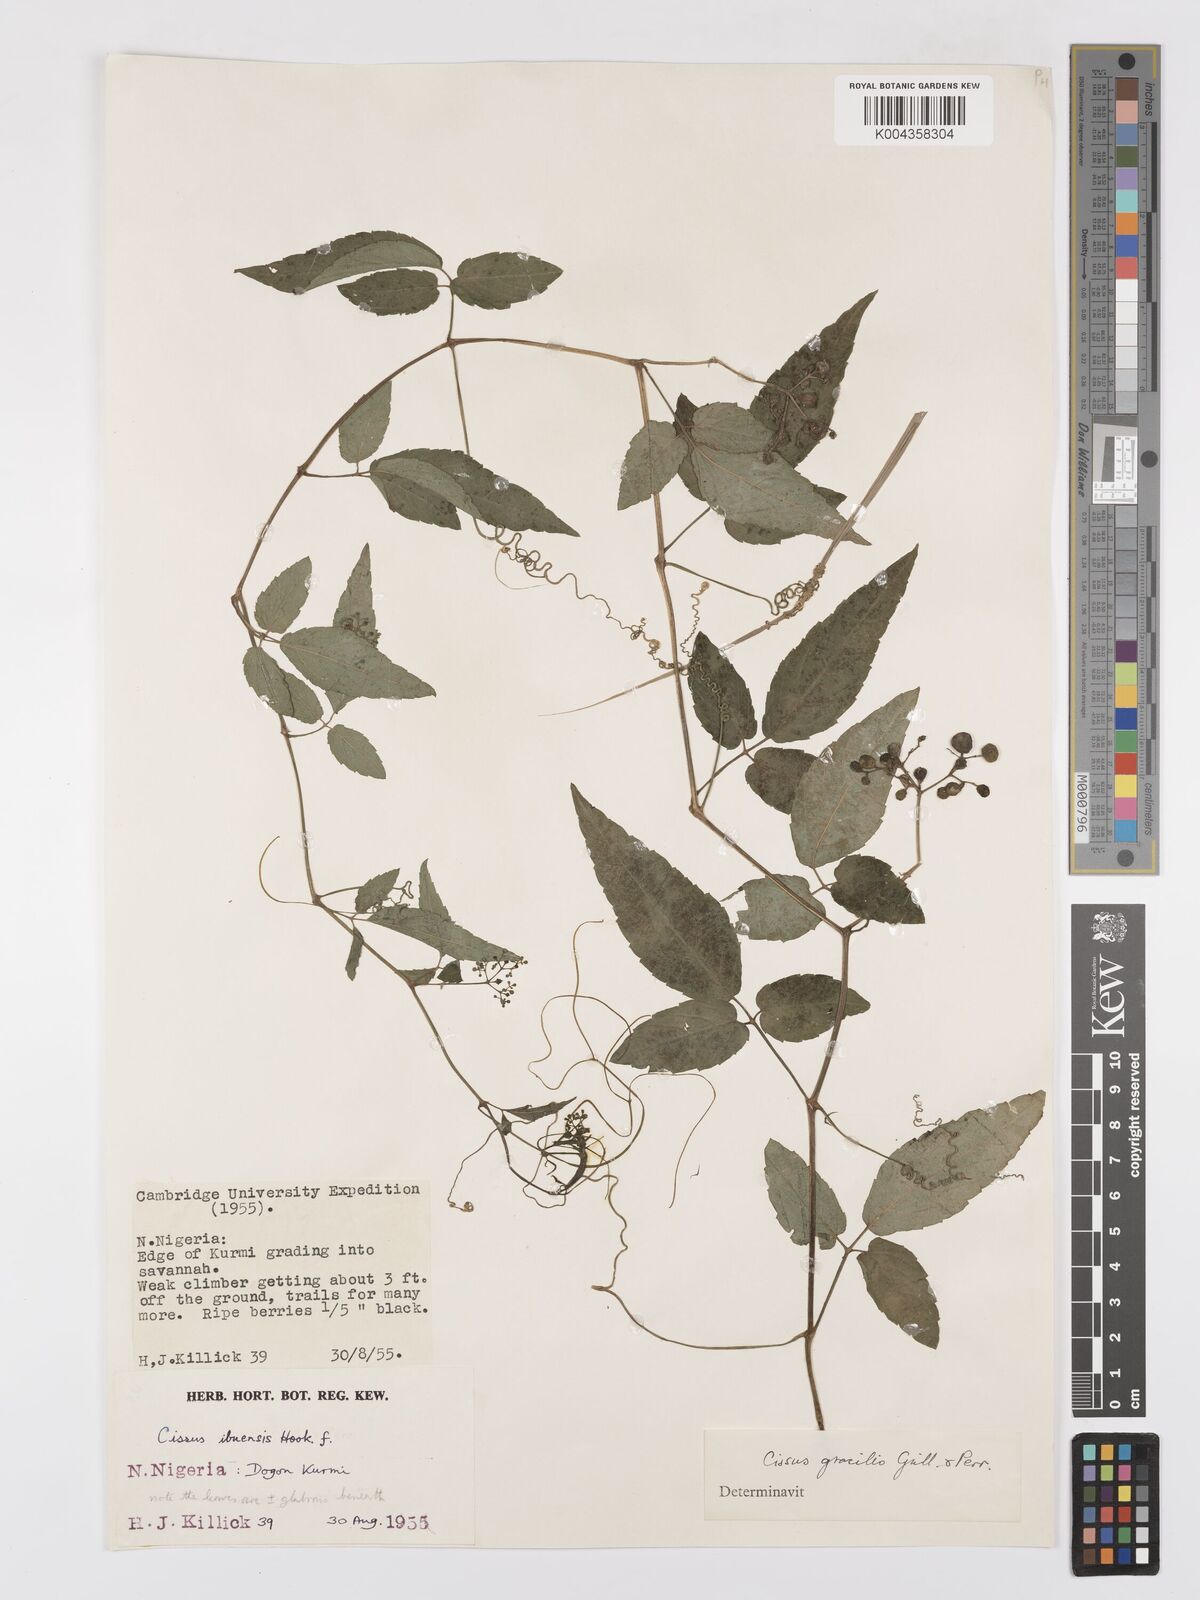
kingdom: Plantae
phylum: Tracheophyta
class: Magnoliopsida
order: Vitales
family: Vitaceae
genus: Afrocayratia
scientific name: Afrocayratia gracilis
